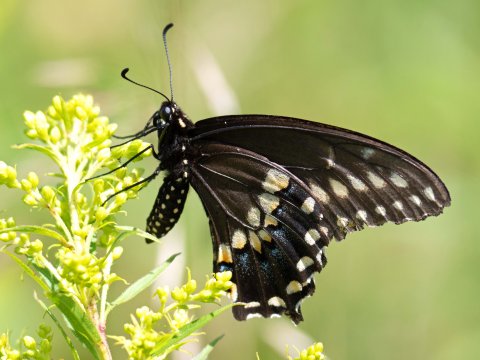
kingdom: Animalia
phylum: Arthropoda
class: Insecta
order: Lepidoptera
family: Papilionidae
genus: Papilio
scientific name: Papilio polyxenes
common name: Black Swallowtail
